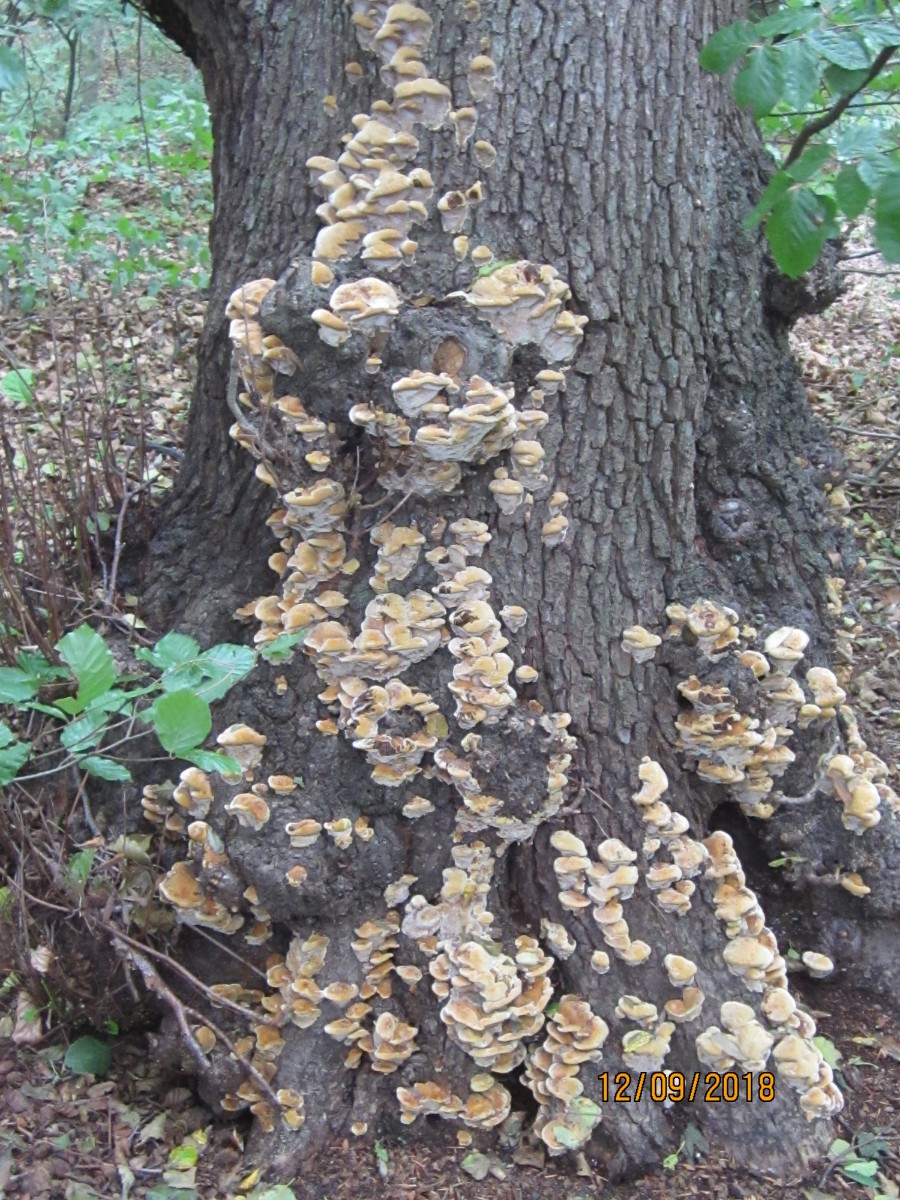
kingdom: Fungi
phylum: Basidiomycota
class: Agaricomycetes
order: Hymenochaetales
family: Hymenochaetaceae
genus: Xanthoporia
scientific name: Xanthoporia radiata
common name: elle-spejlporesvamp
